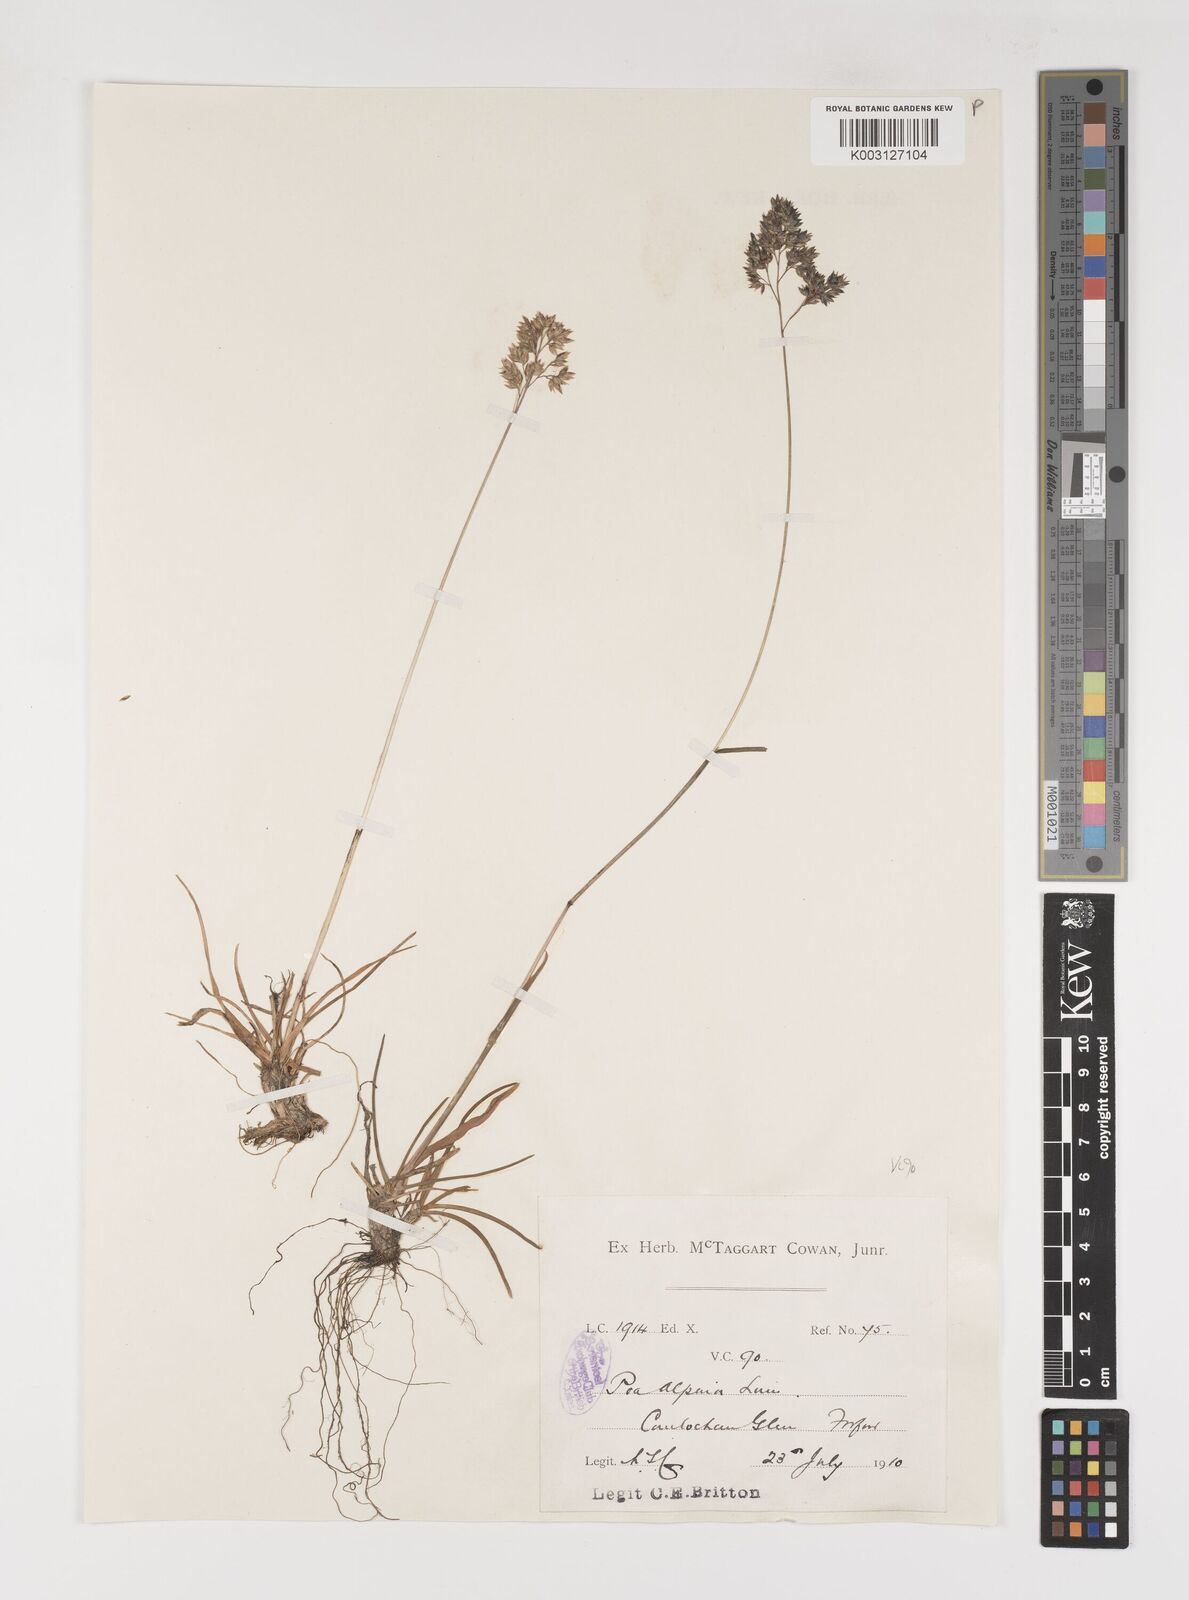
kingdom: Plantae
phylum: Tracheophyta
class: Liliopsida
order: Poales
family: Poaceae
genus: Poa
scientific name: Poa alpina
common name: Alpine bluegrass
